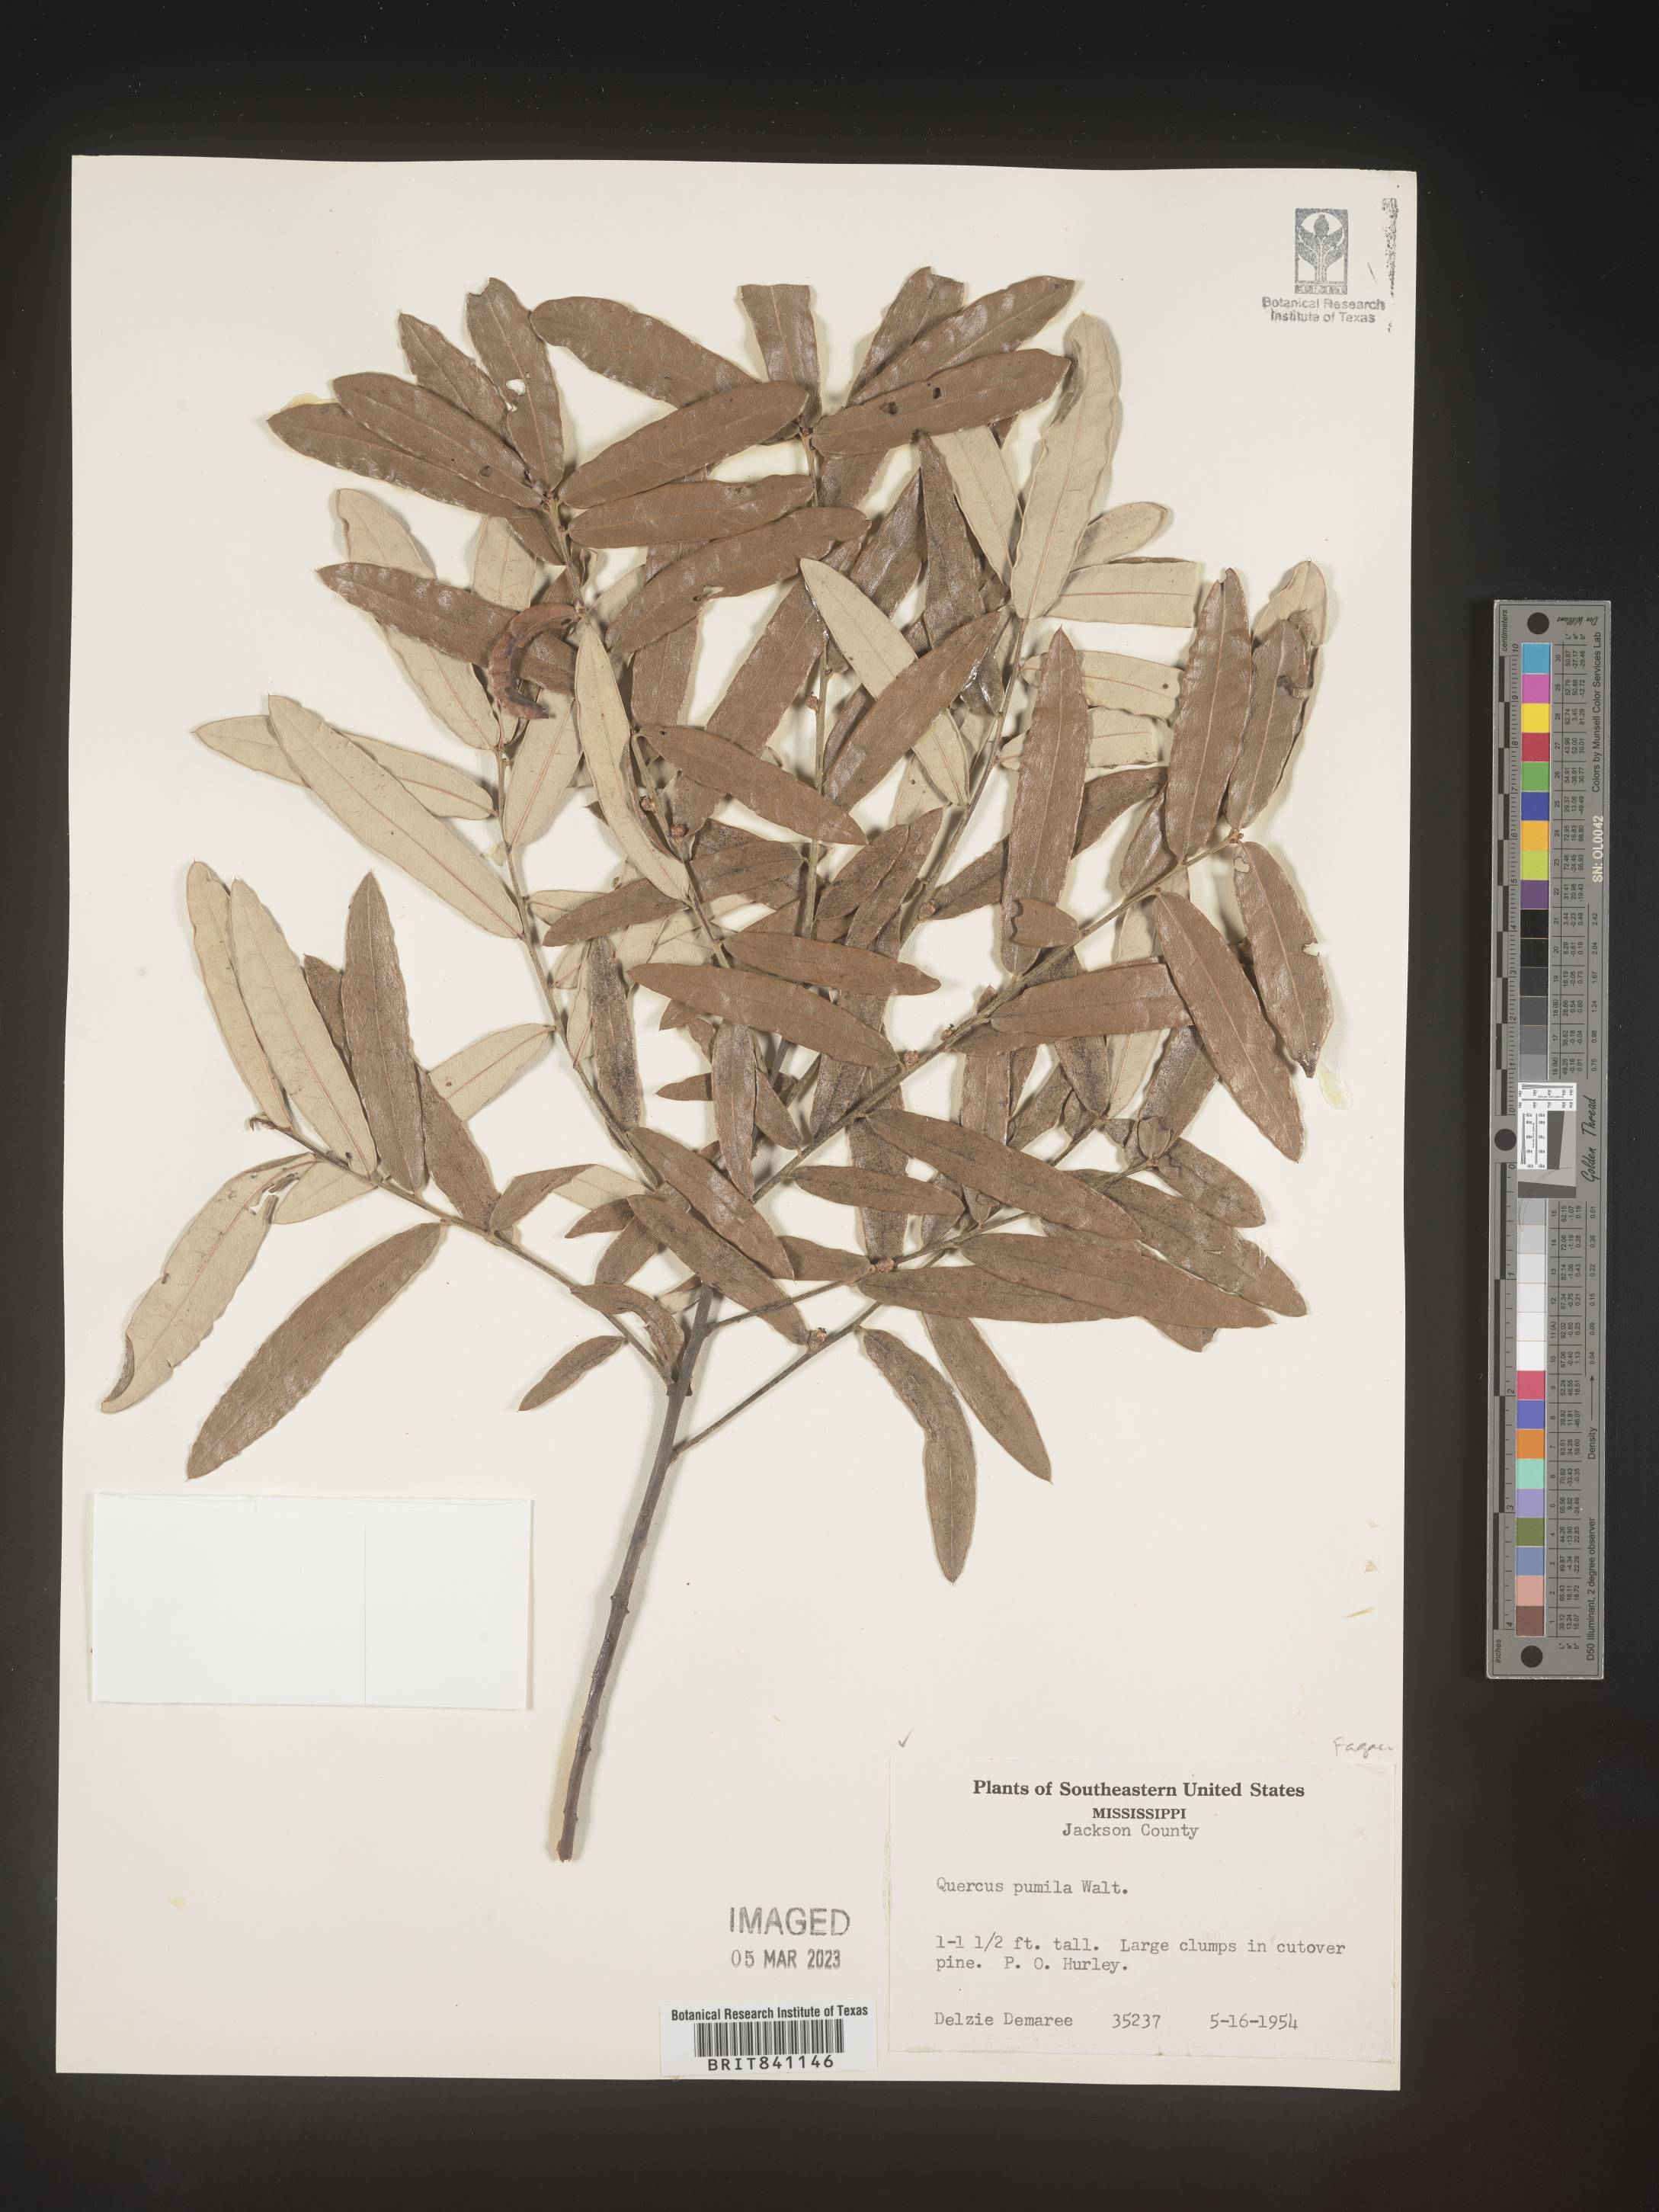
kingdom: Plantae
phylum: Tracheophyta
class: Magnoliopsida
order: Fagales
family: Fagaceae
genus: Quercus
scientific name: Quercus pumila
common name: Runner oak
